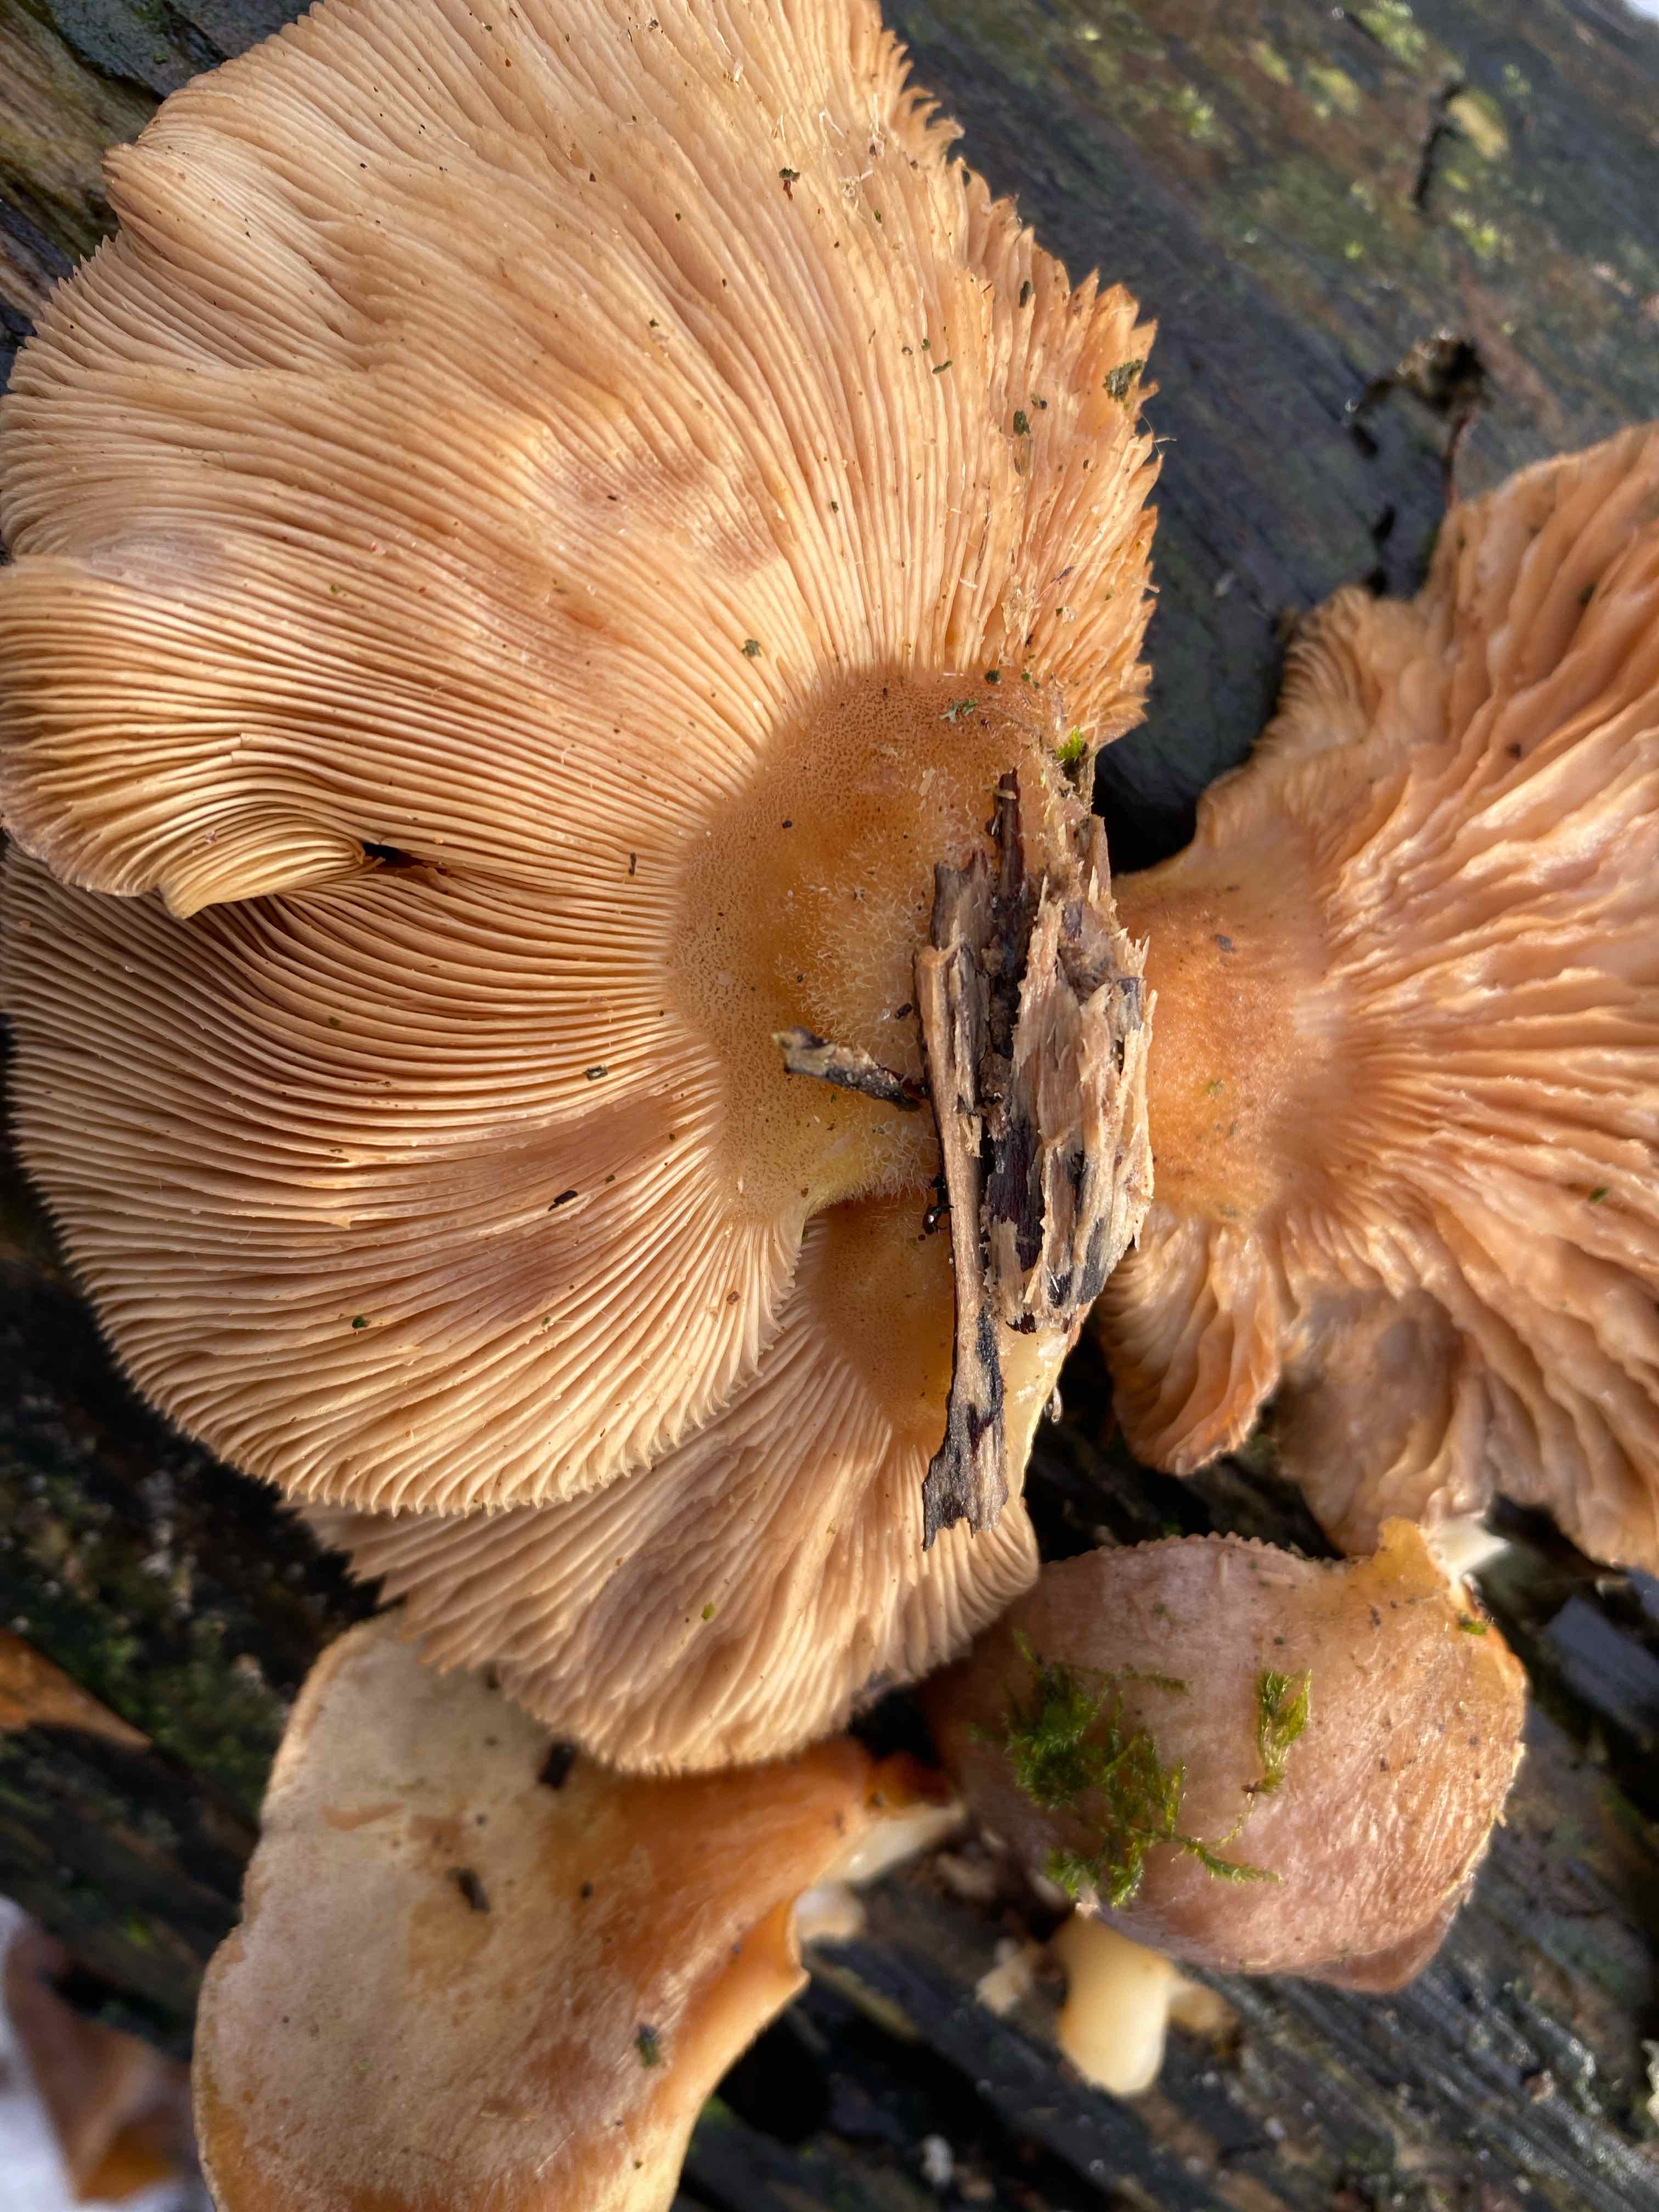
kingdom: Fungi
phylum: Basidiomycota
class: Agaricomycetes
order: Agaricales
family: Sarcomyxaceae
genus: Sarcomyxa
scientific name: Sarcomyxa serotina
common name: gummihat
